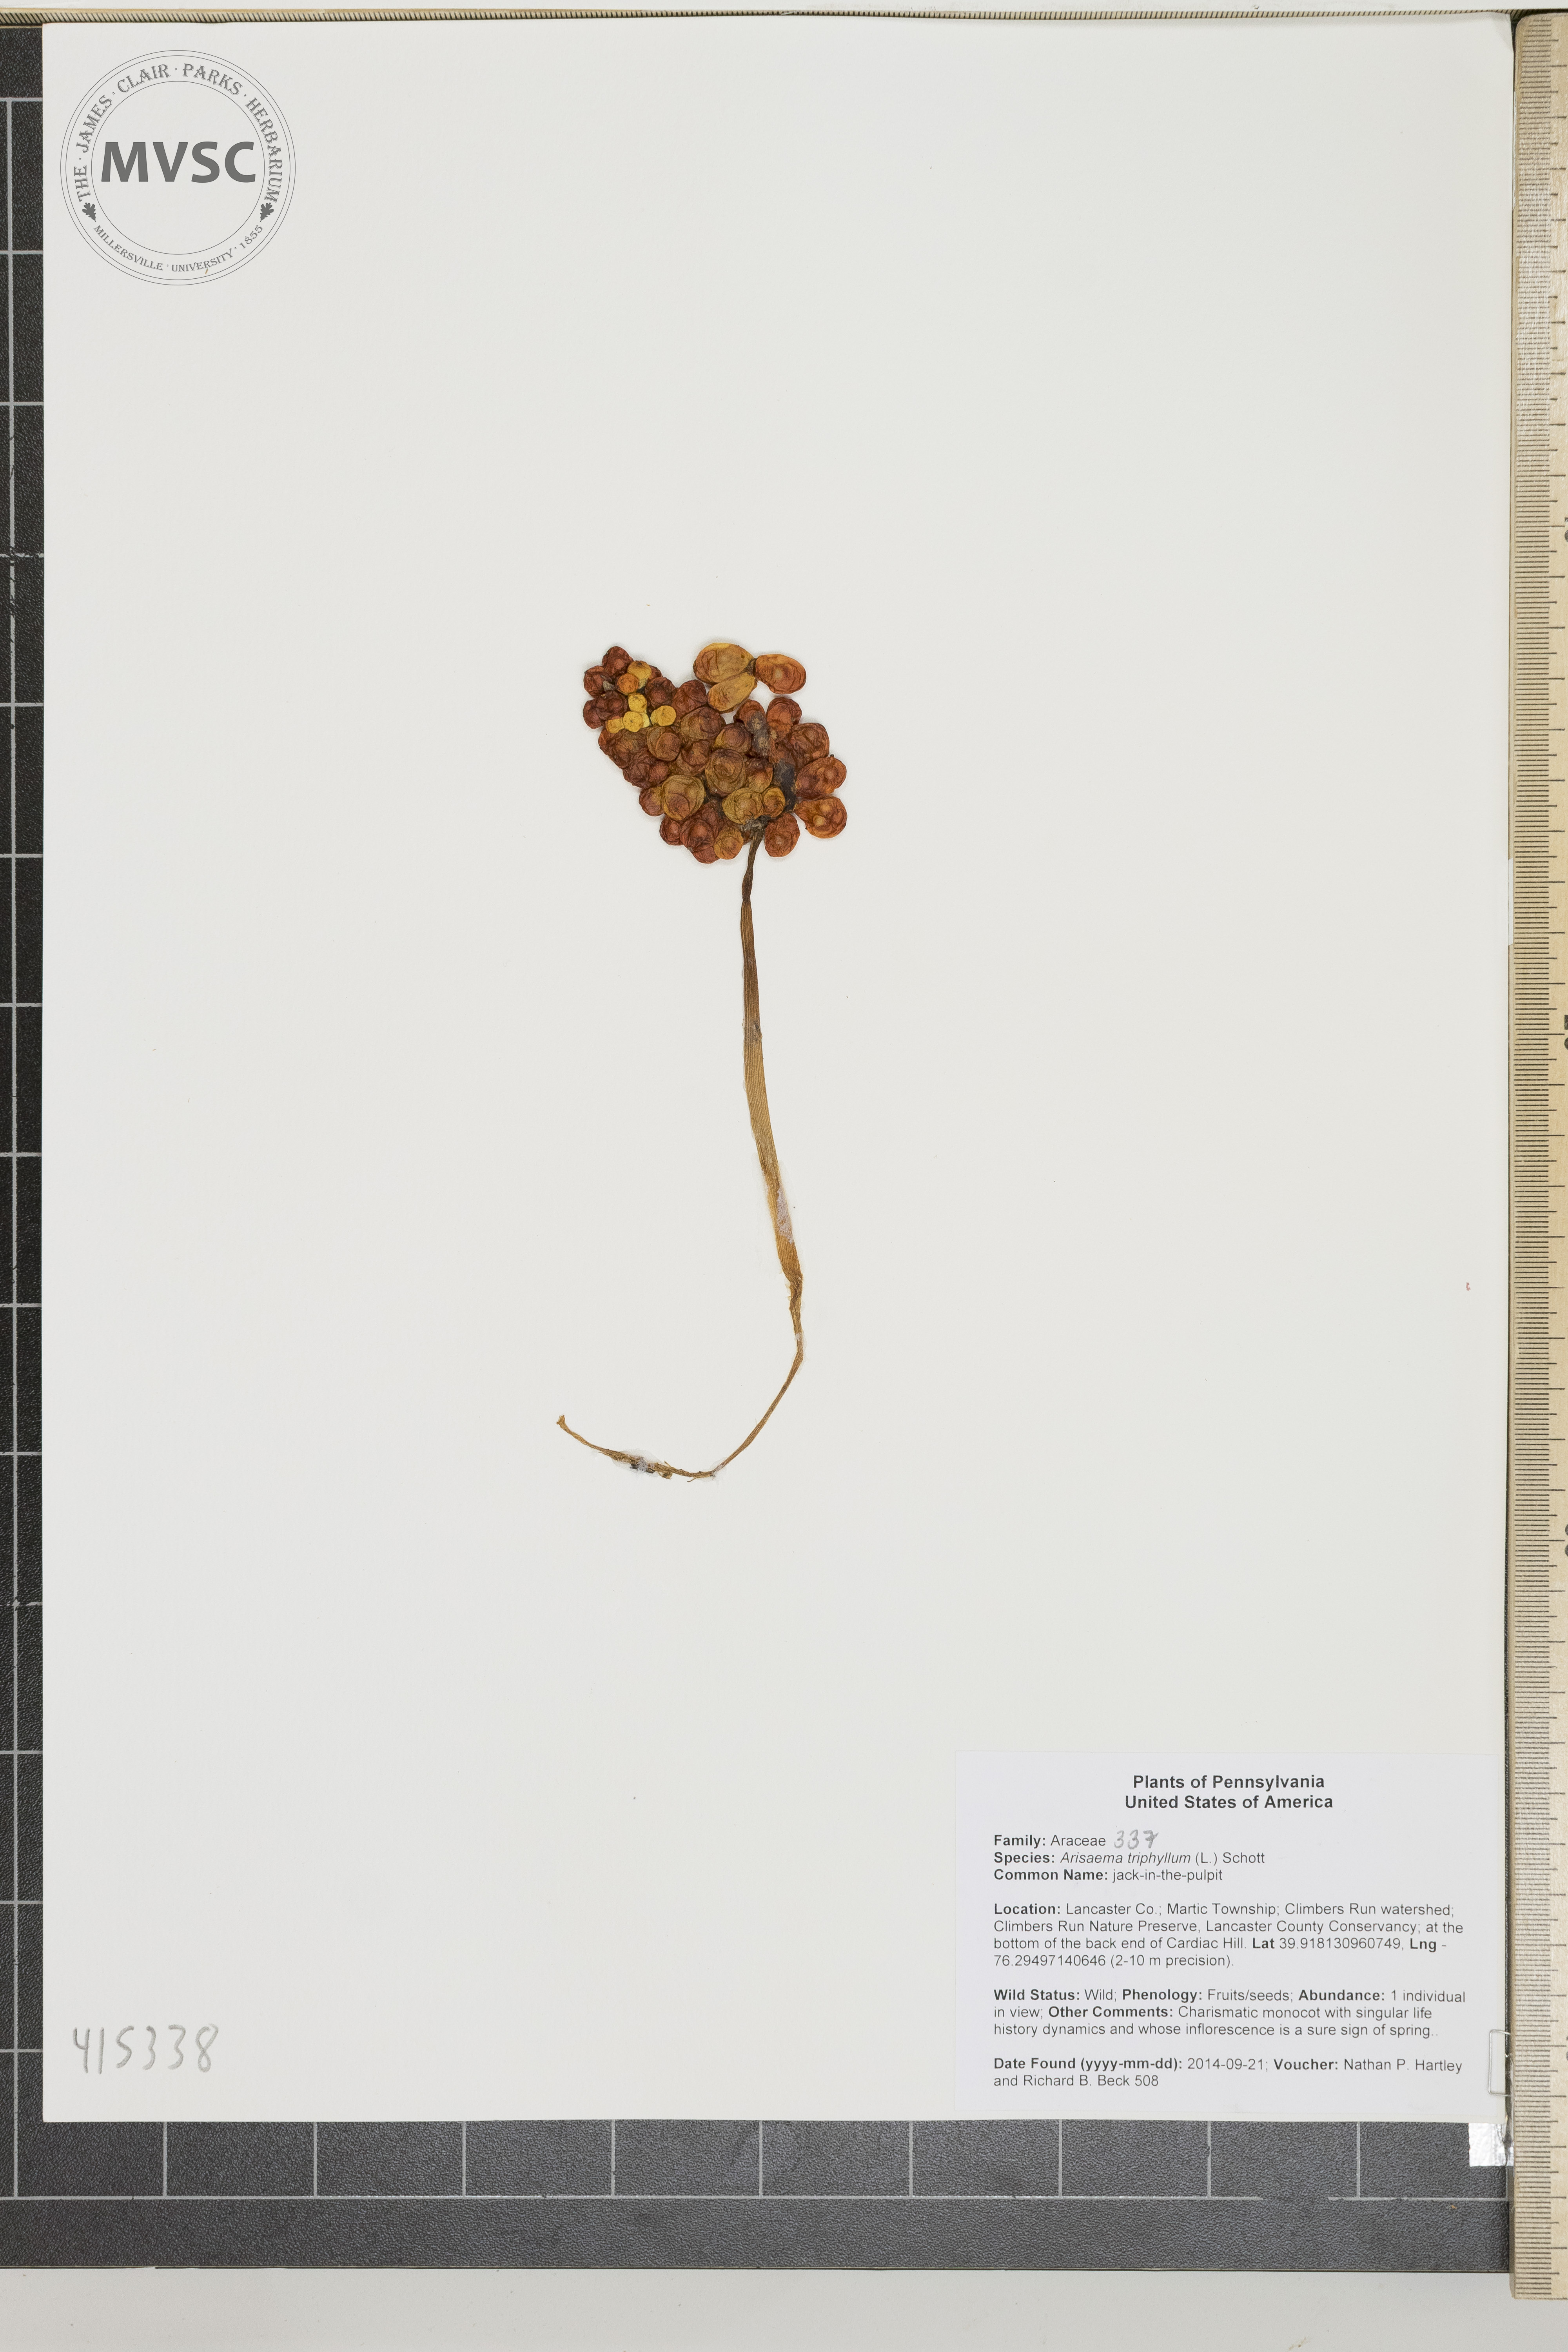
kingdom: Plantae
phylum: Tracheophyta
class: Liliopsida
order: Alismatales
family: Araceae
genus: Arisaema
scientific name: Arisaema triphyllum
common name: Jack-in-the-pulpit
